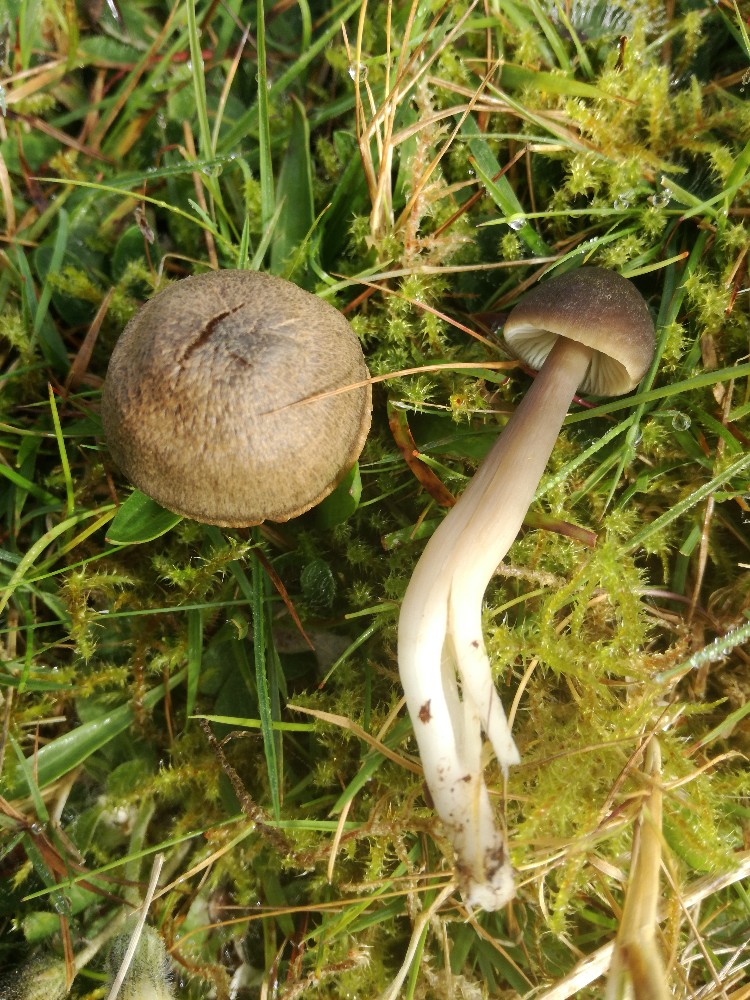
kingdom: Fungi
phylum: Basidiomycota
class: Agaricomycetes
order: Agaricales
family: Hygrophoraceae
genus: Neohygrocybe
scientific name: Neohygrocybe nitrata
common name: stinkende vokshat
